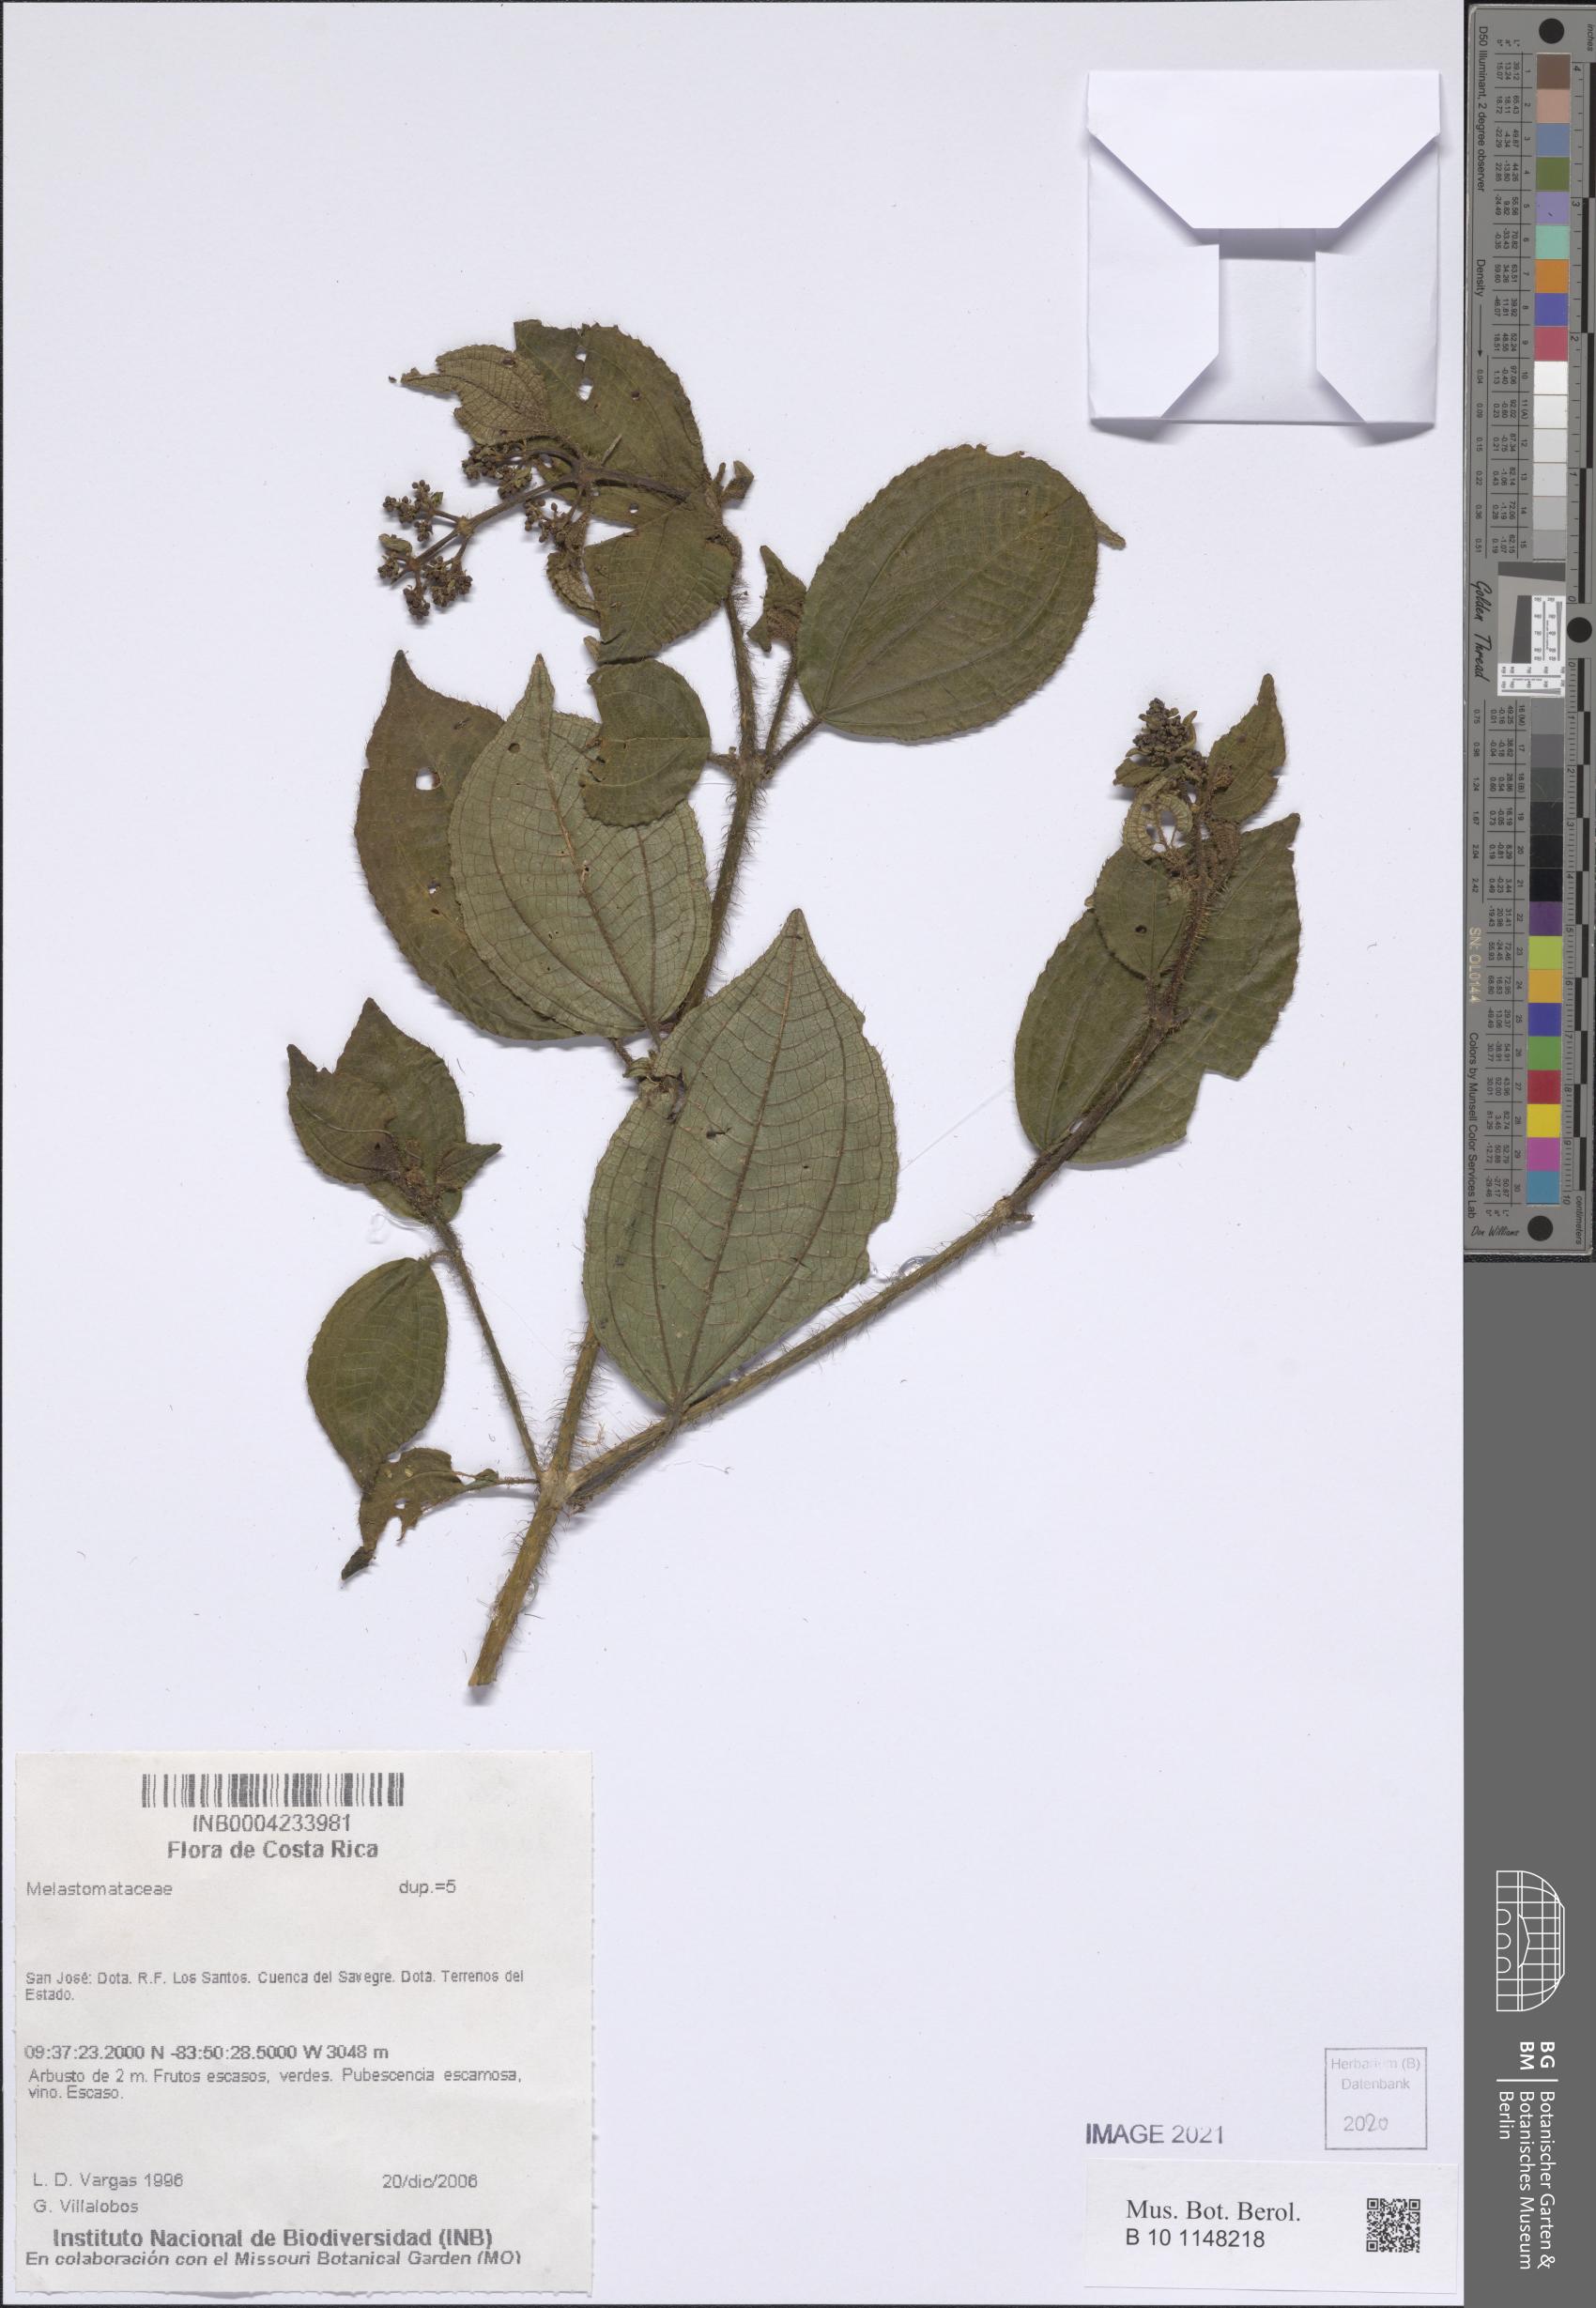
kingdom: Plantae
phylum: Tracheophyta
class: Magnoliopsida
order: Myrtales
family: Melastomataceae
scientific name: Melastomataceae
